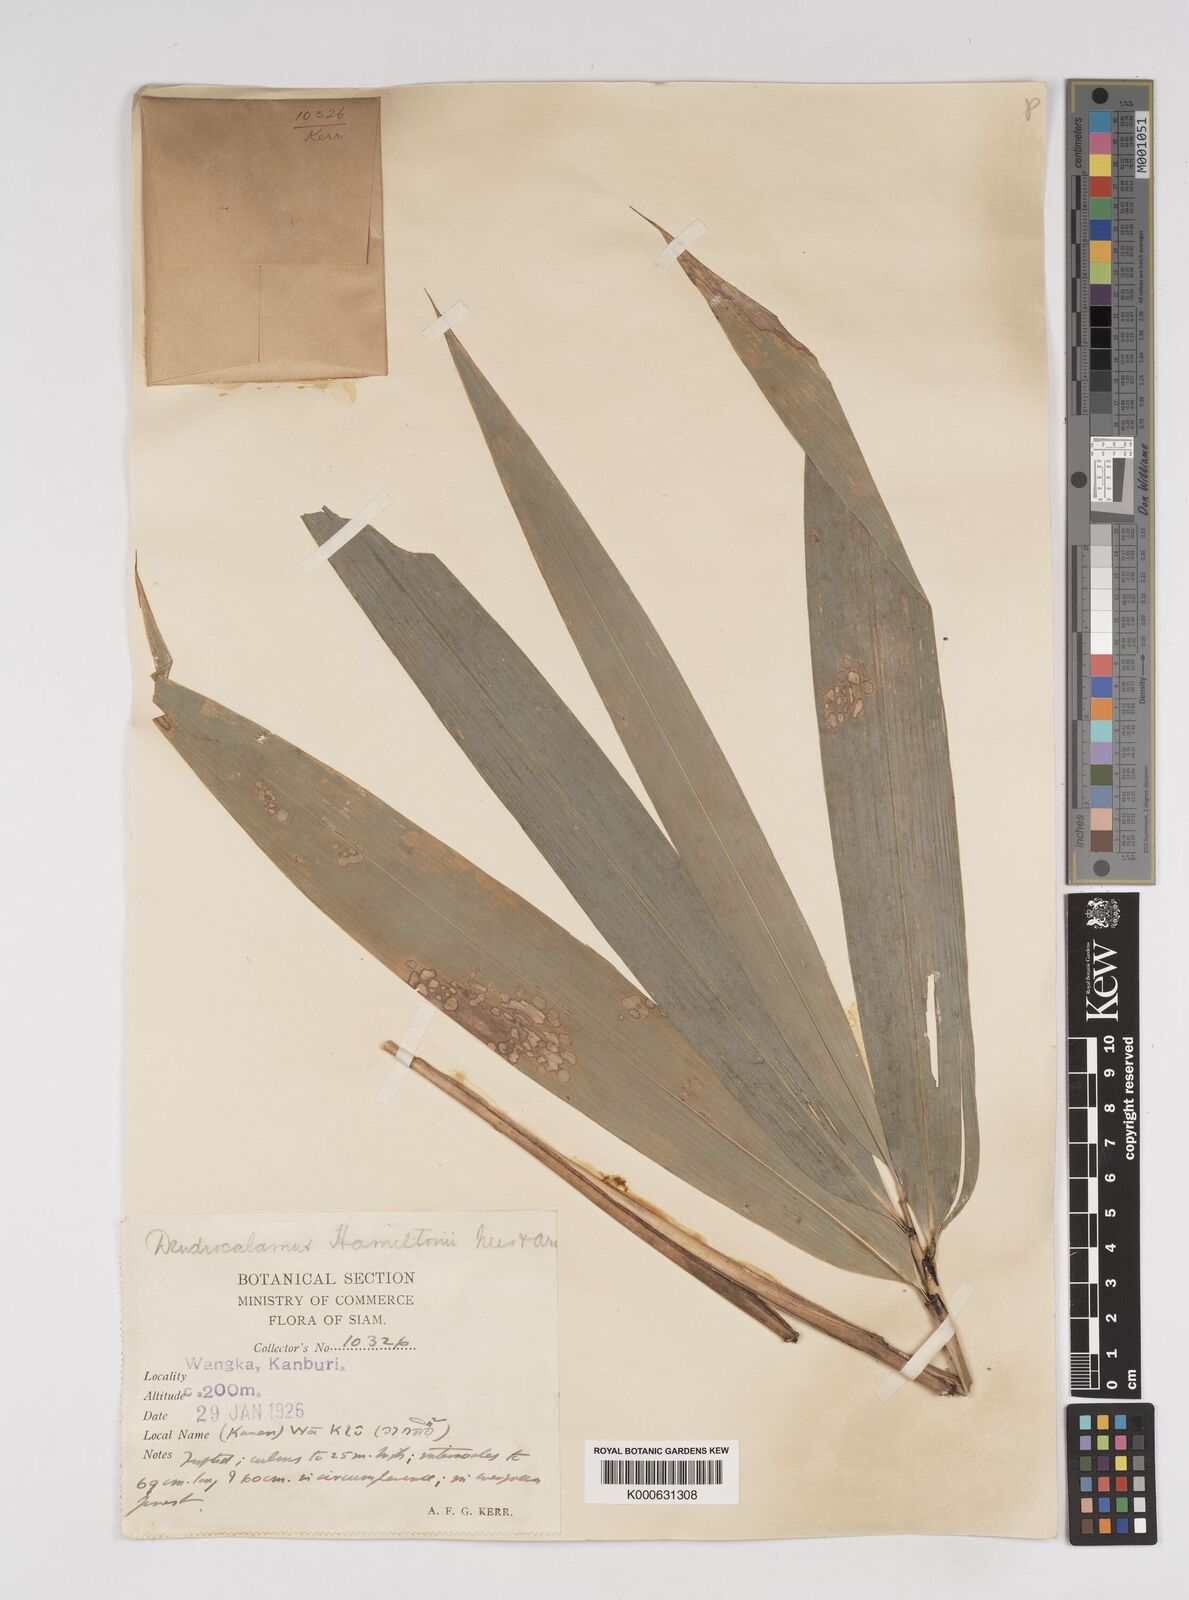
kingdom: Plantae
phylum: Tracheophyta
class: Liliopsida
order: Poales
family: Poaceae
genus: Dendrocalamus
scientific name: Dendrocalamus brandisii
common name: Velvetleaf bamboo
